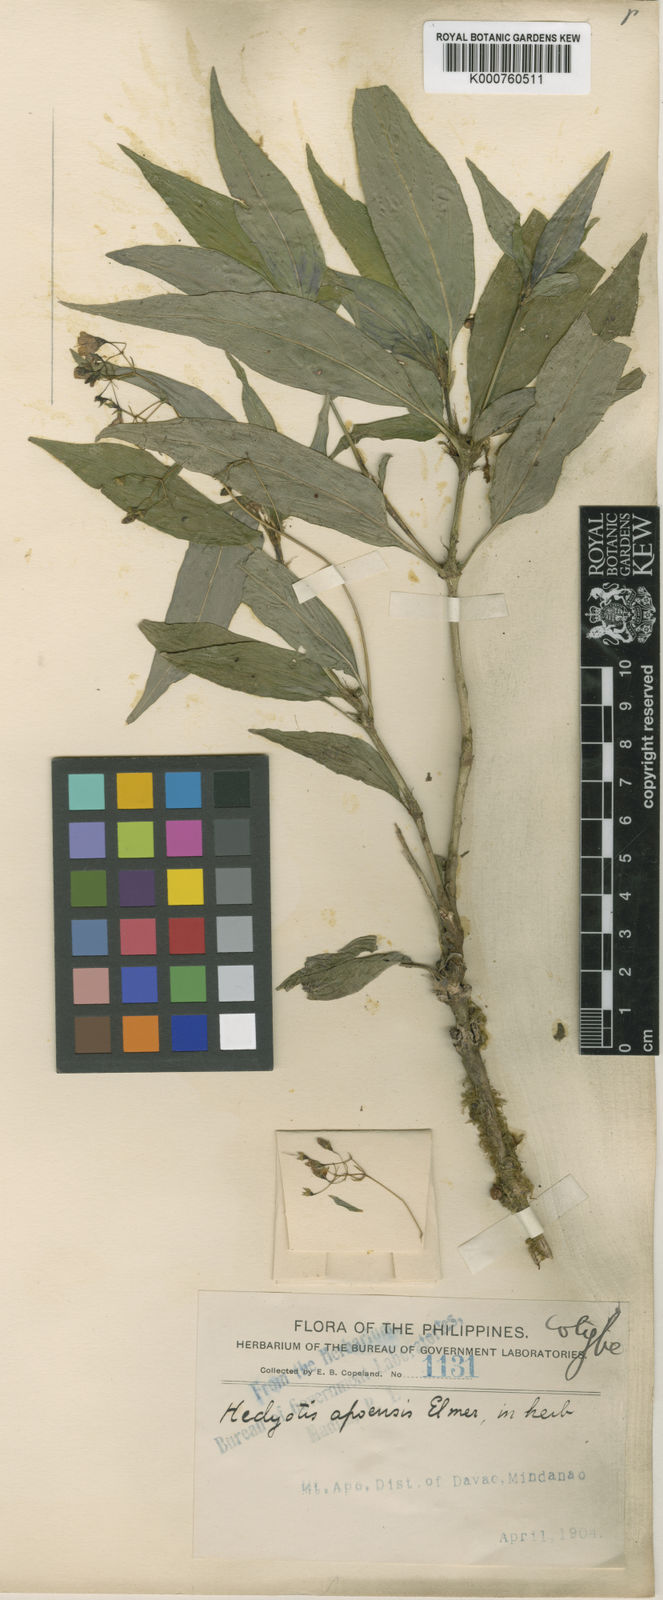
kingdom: Plantae
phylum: Tracheophyta
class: Magnoliopsida
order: Gentianales
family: Rubiaceae
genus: Oldenlandia
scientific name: Oldenlandia apoensis
